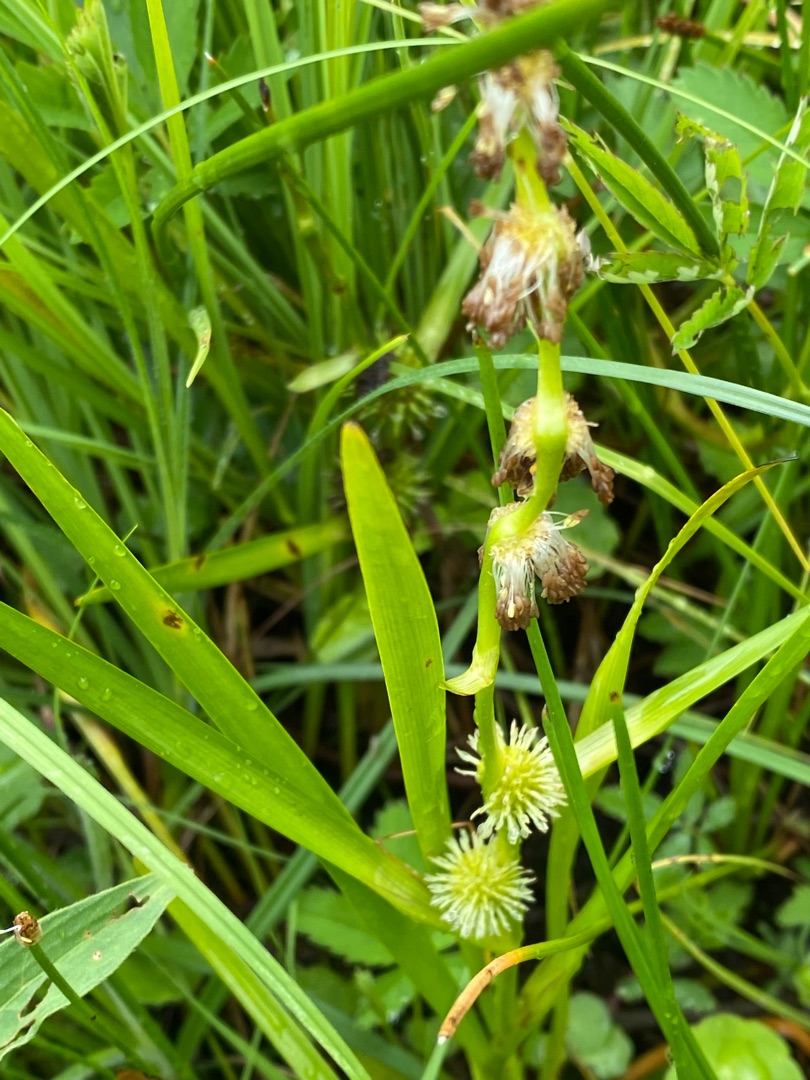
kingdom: Plantae
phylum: Tracheophyta
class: Liliopsida
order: Poales
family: Typhaceae
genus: Sparganium
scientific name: Sparganium emersum
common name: Enkelt pindsvineknop
